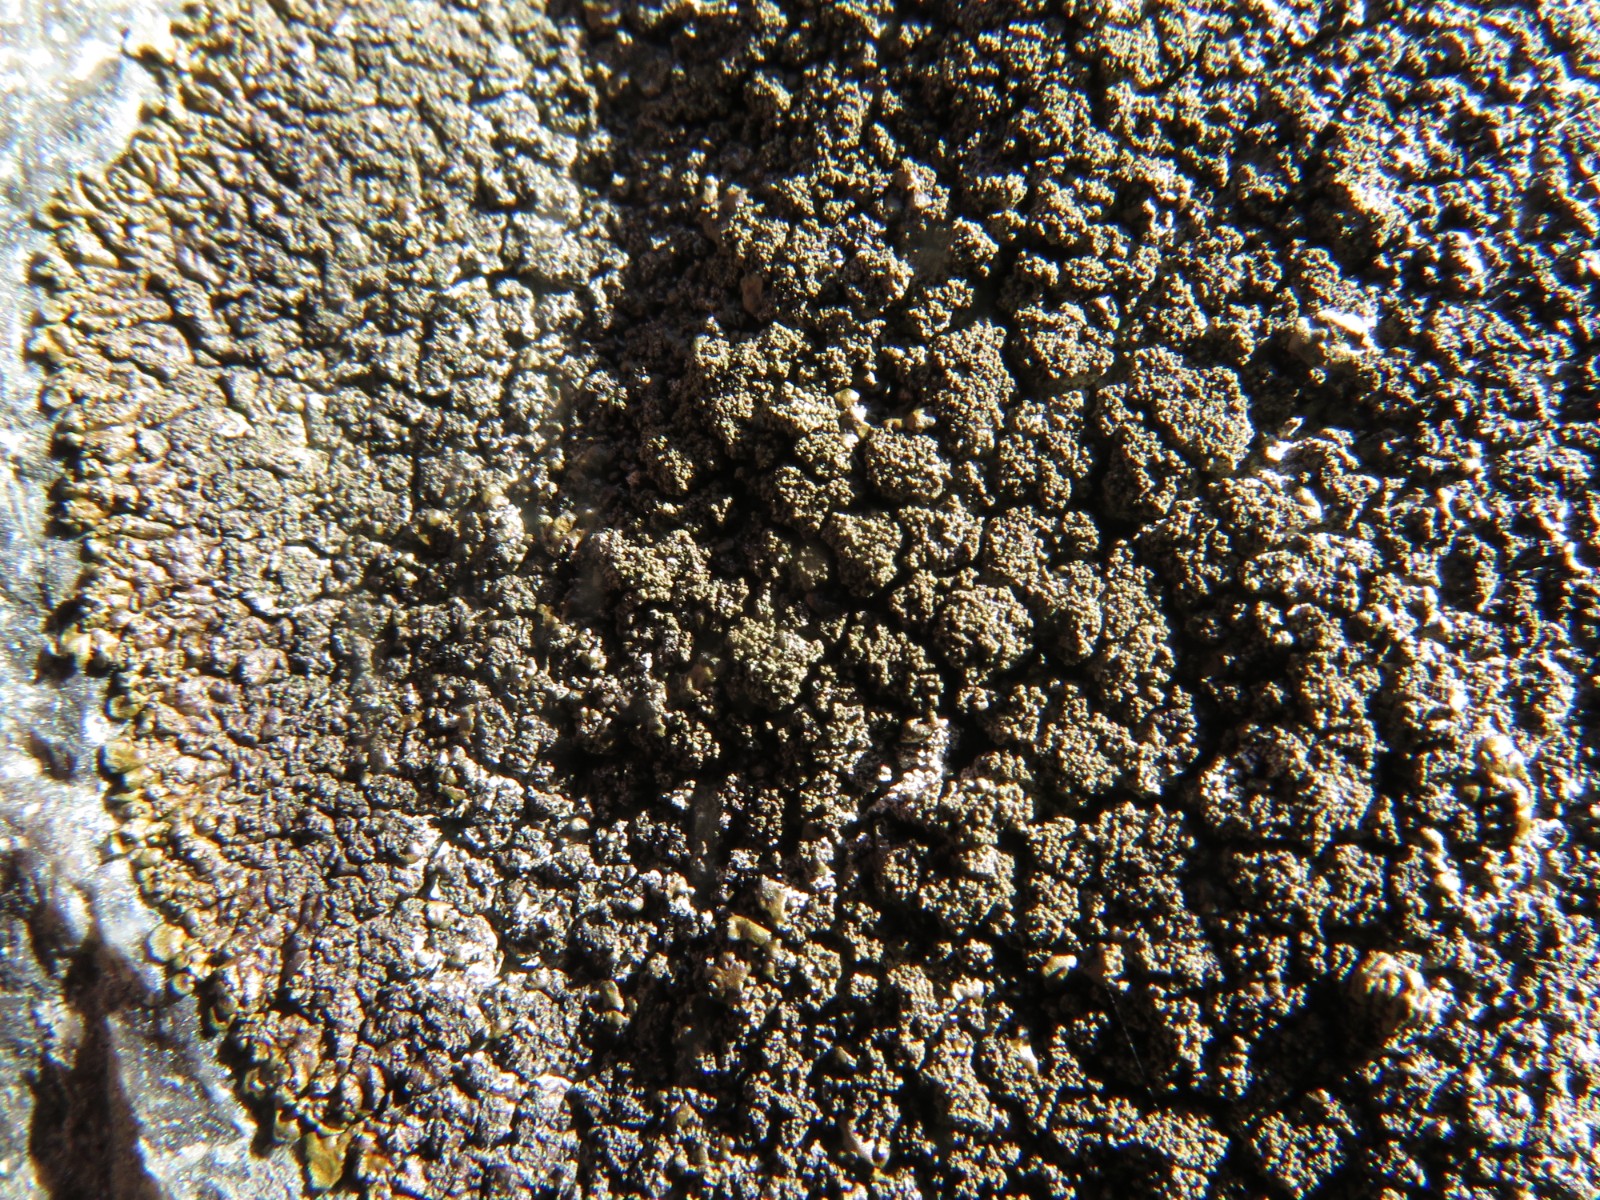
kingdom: Fungi
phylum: Ascomycota
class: Lecanoromycetes
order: Lecanorales
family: Parmeliaceae
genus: Xanthoparmelia
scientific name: Xanthoparmelia verruculifera
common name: småknoppet skållav
